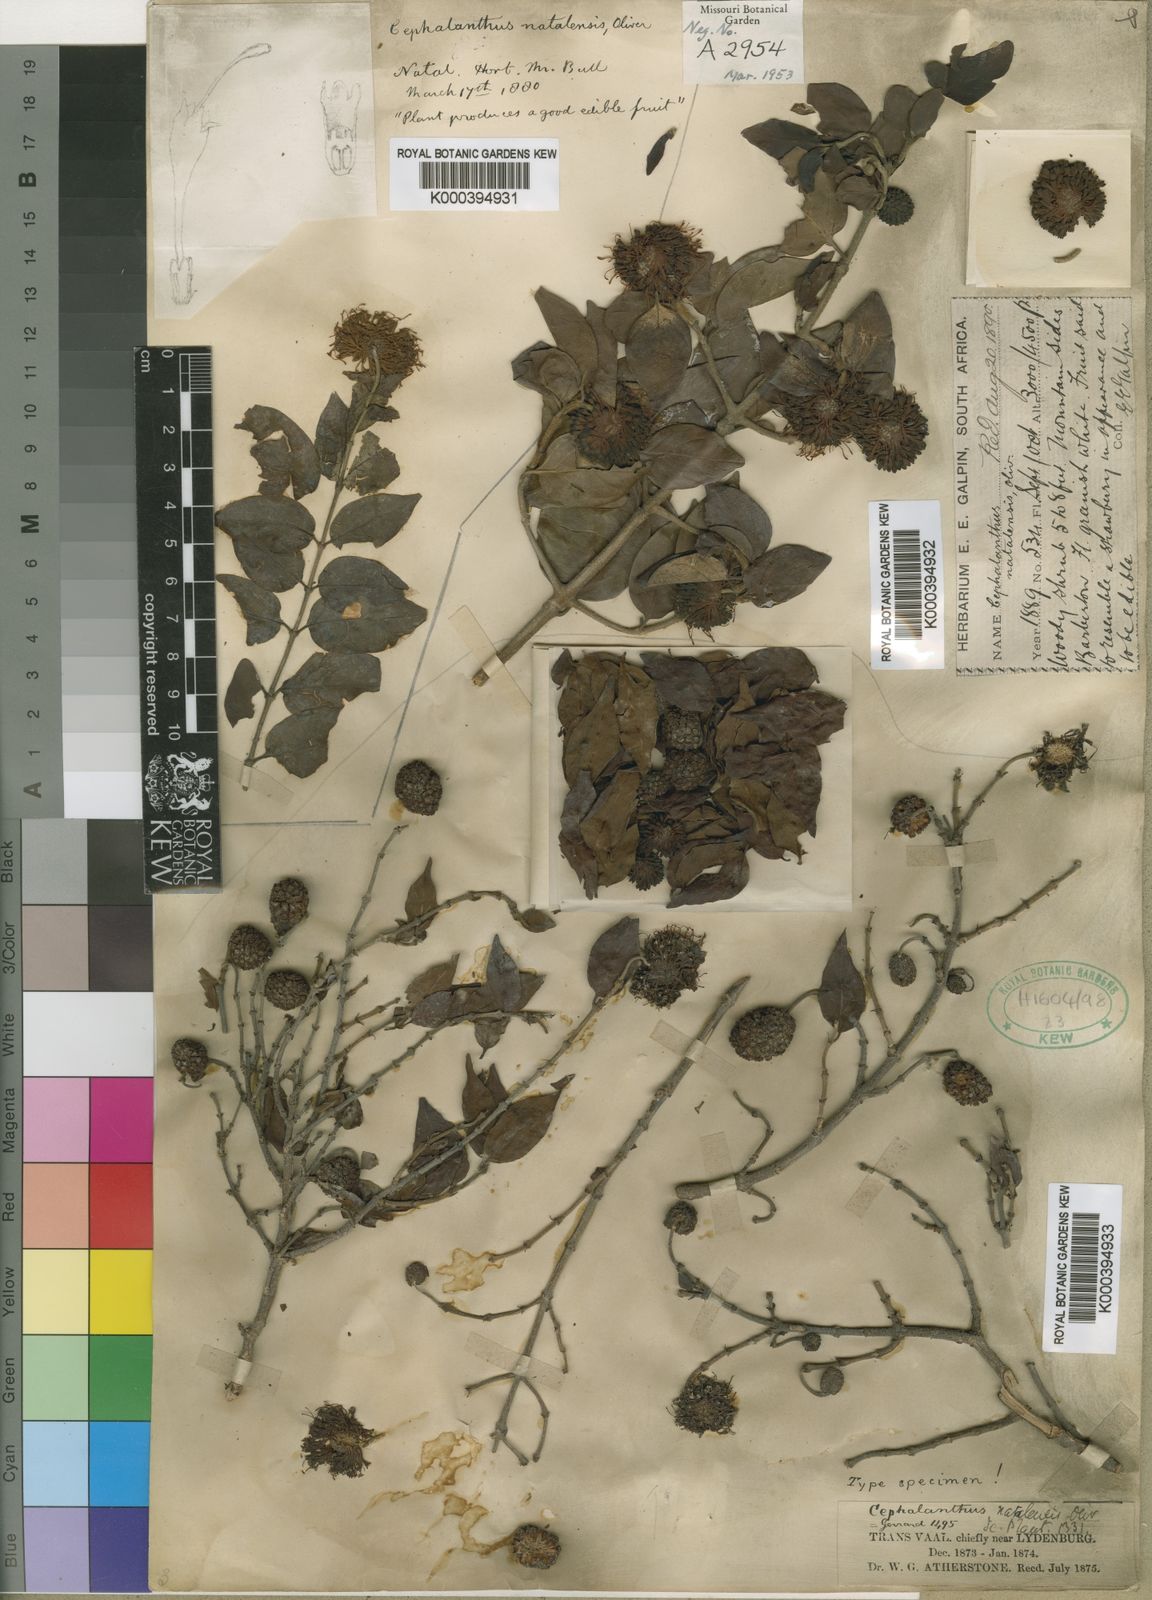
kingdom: Plantae
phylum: Tracheophyta
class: Magnoliopsida
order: Gentianales
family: Rubiaceae
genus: Cephalanthus
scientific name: Cephalanthus natalensis
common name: Strawberry bush
